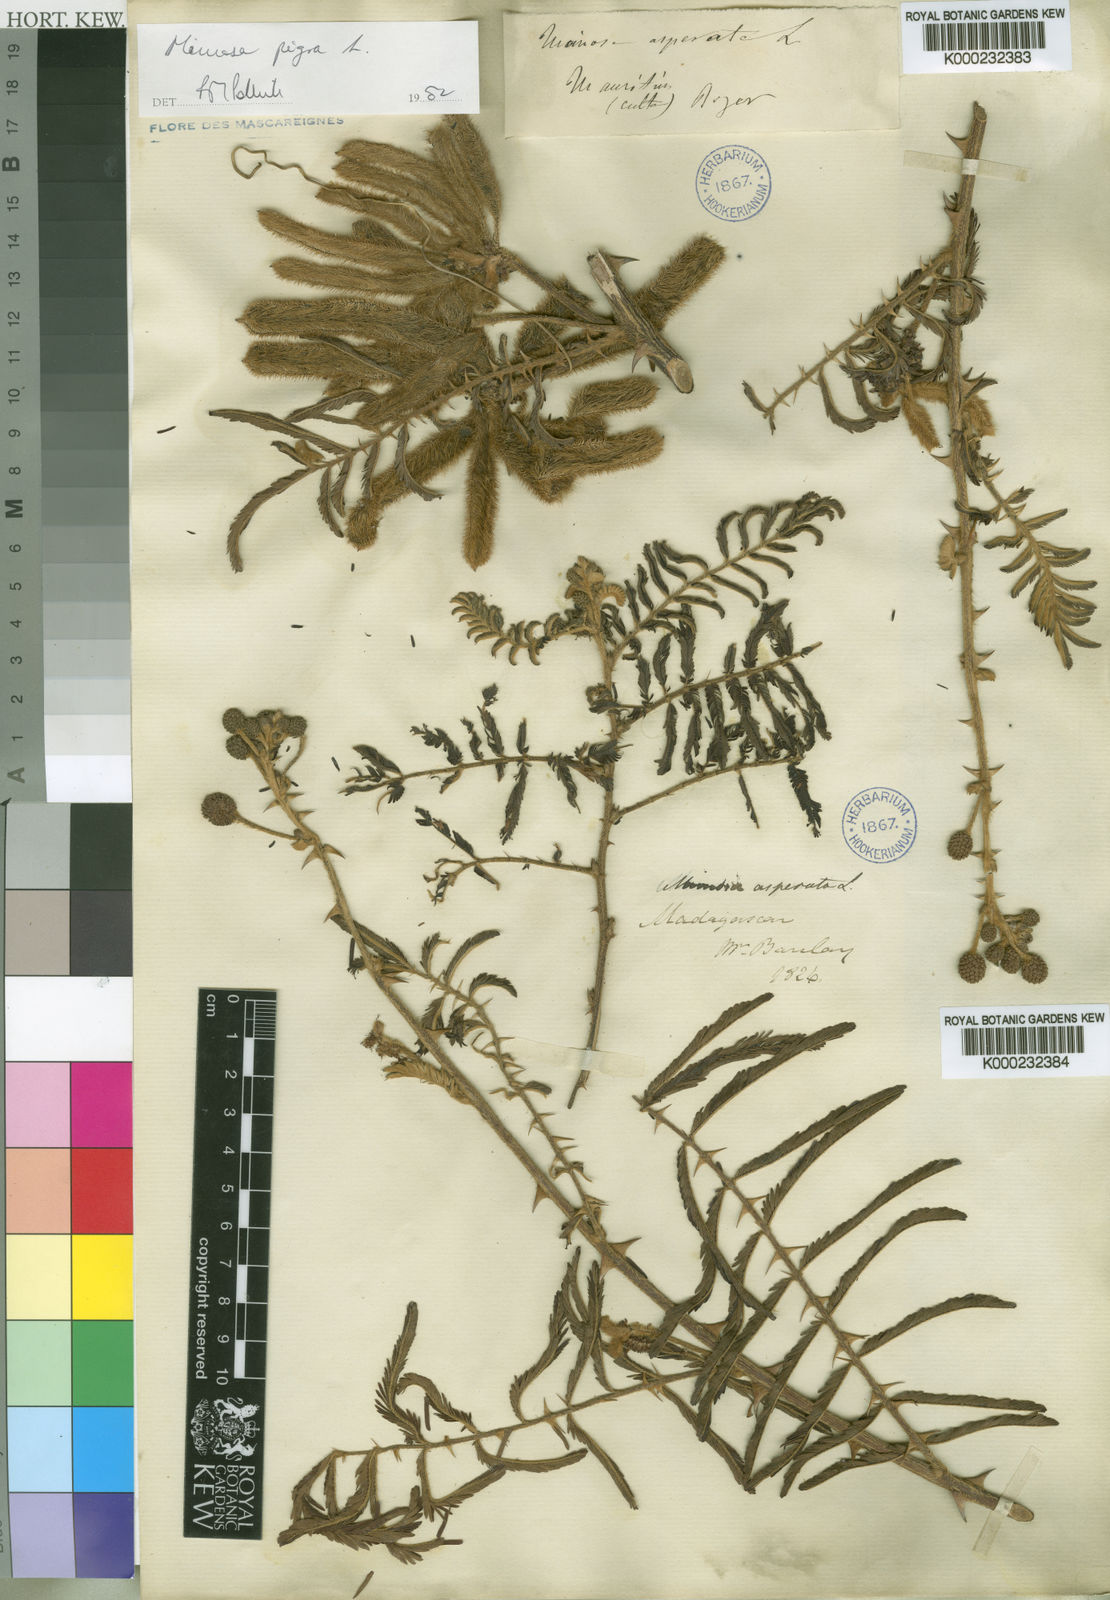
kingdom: Plantae
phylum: Tracheophyta
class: Magnoliopsida
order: Fabales
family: Fabaceae
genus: Mimosa
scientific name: Mimosa pigra
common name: Black mimosa
